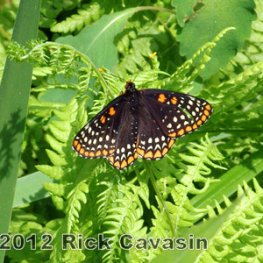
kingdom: Animalia
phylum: Arthropoda
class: Insecta
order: Lepidoptera
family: Nymphalidae
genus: Euphydryas
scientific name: Euphydryas phaeton
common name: Baltimore Checkerspot
